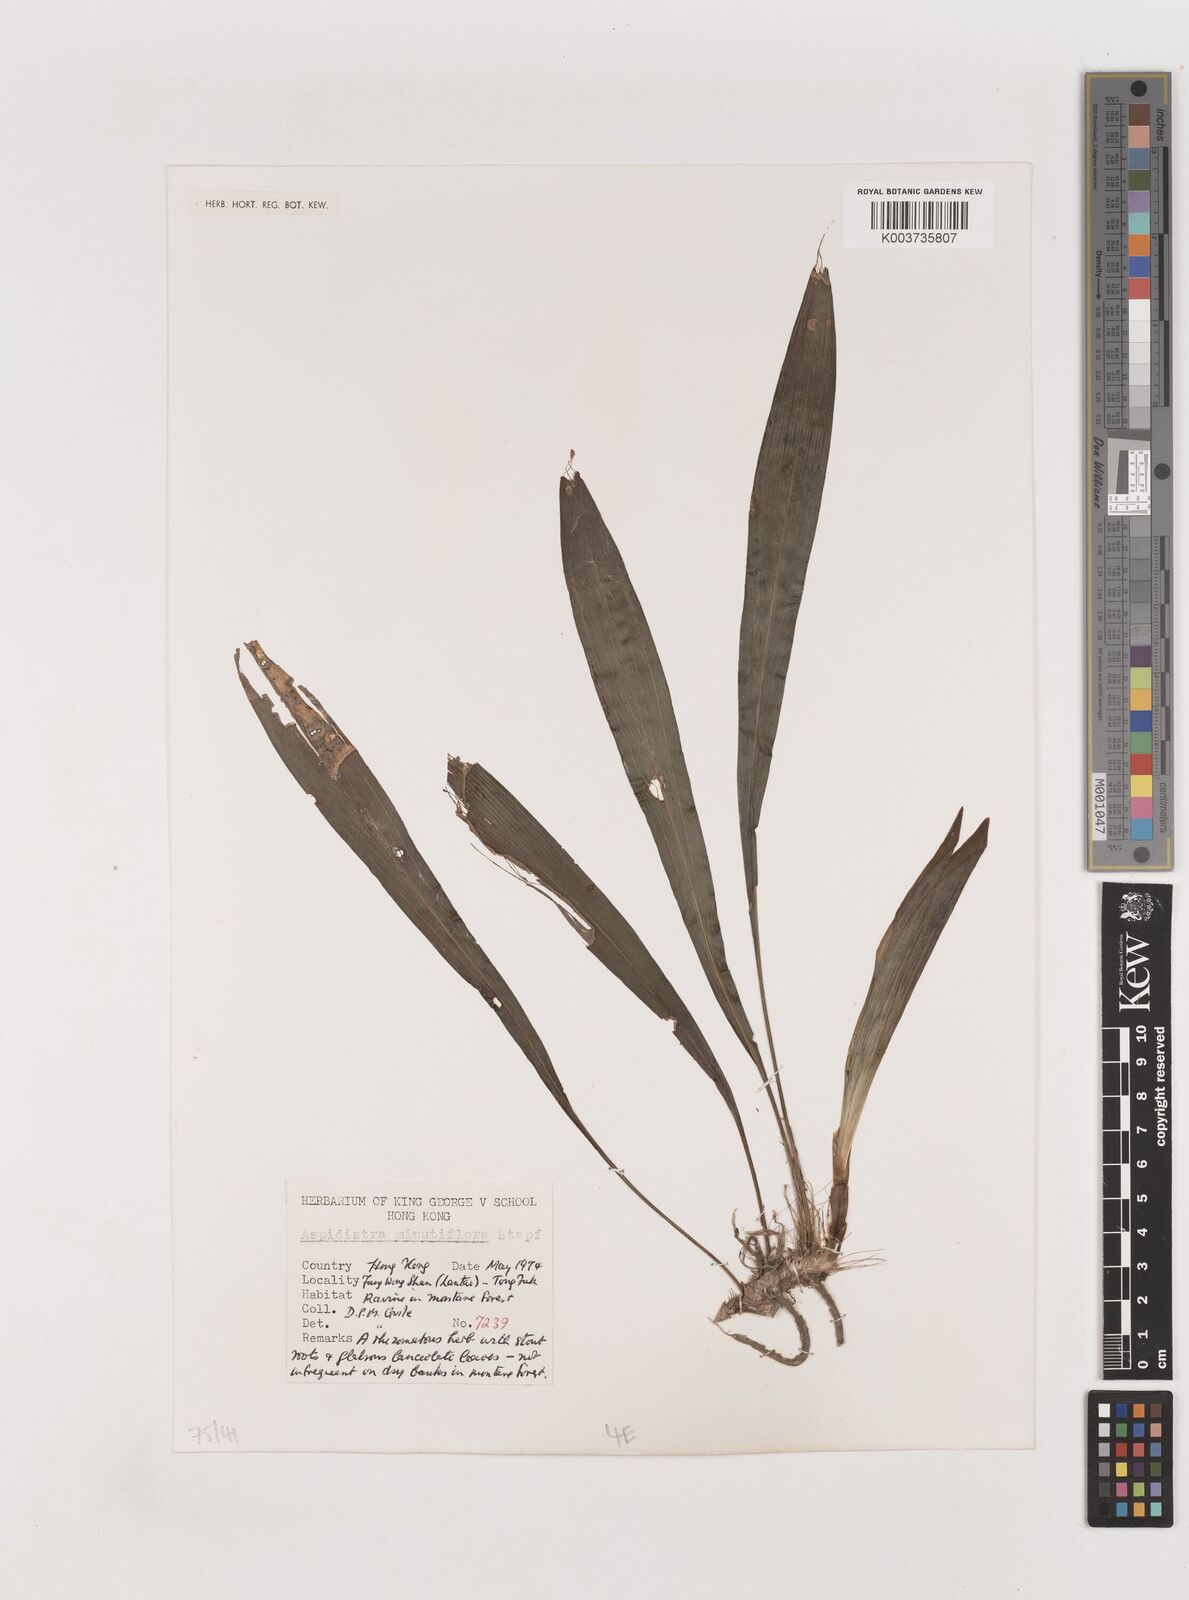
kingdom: Plantae
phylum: Tracheophyta
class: Liliopsida
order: Asparagales
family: Asparagaceae
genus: Aspidistra
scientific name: Aspidistra minutiflora
